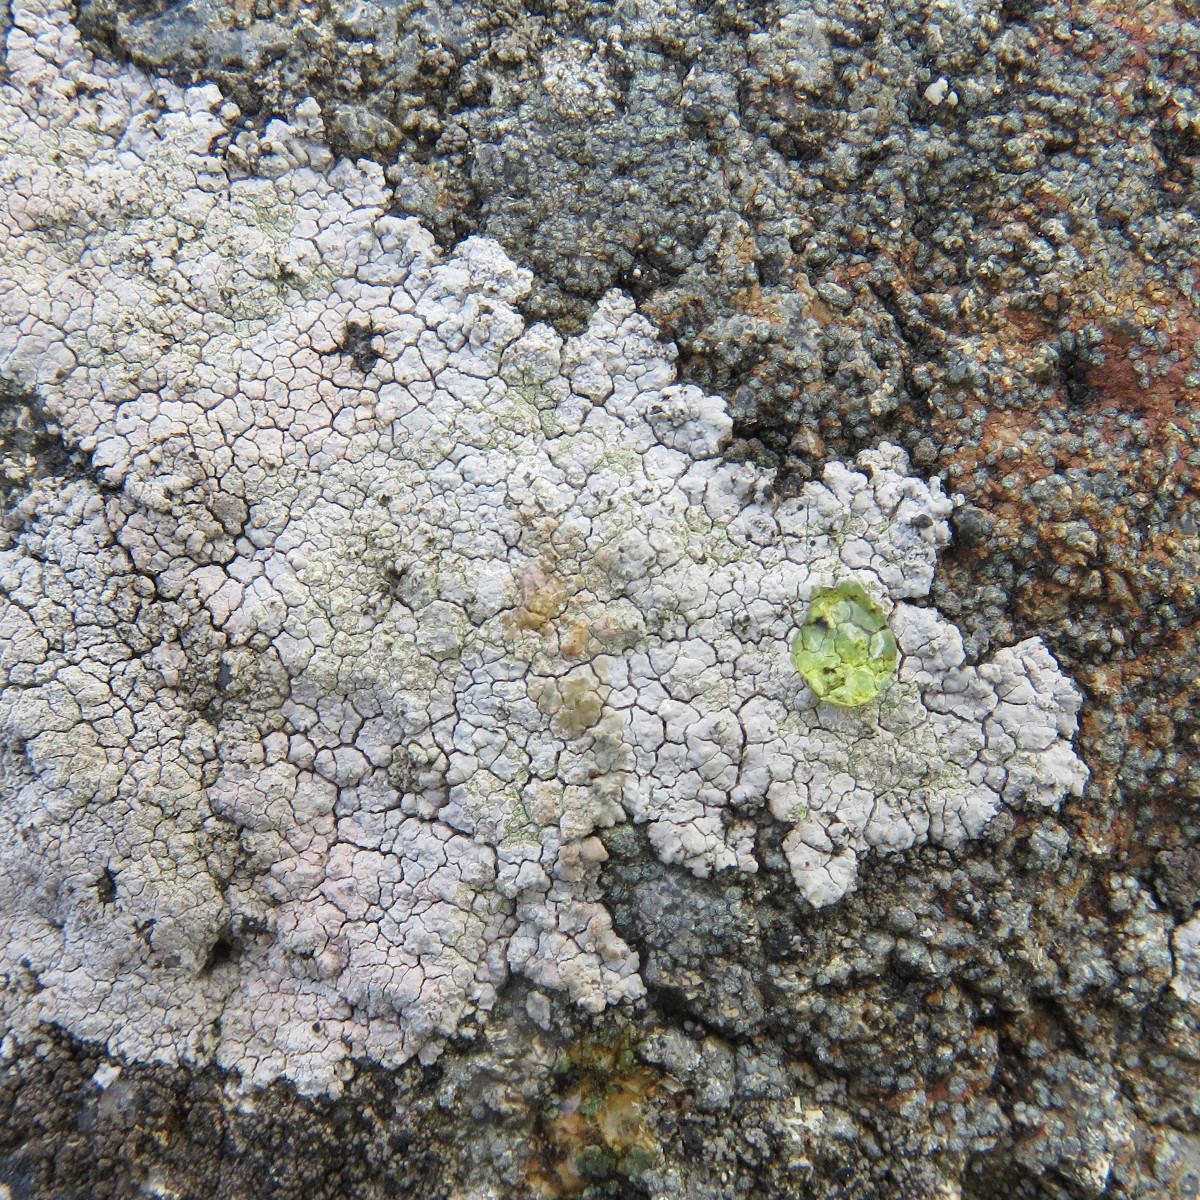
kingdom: Fungi
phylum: Ascomycota
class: Lecanoromycetes
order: Baeomycetales
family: Trapeliaceae
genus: Kleopowiella
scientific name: Kleopowiella placodioides
